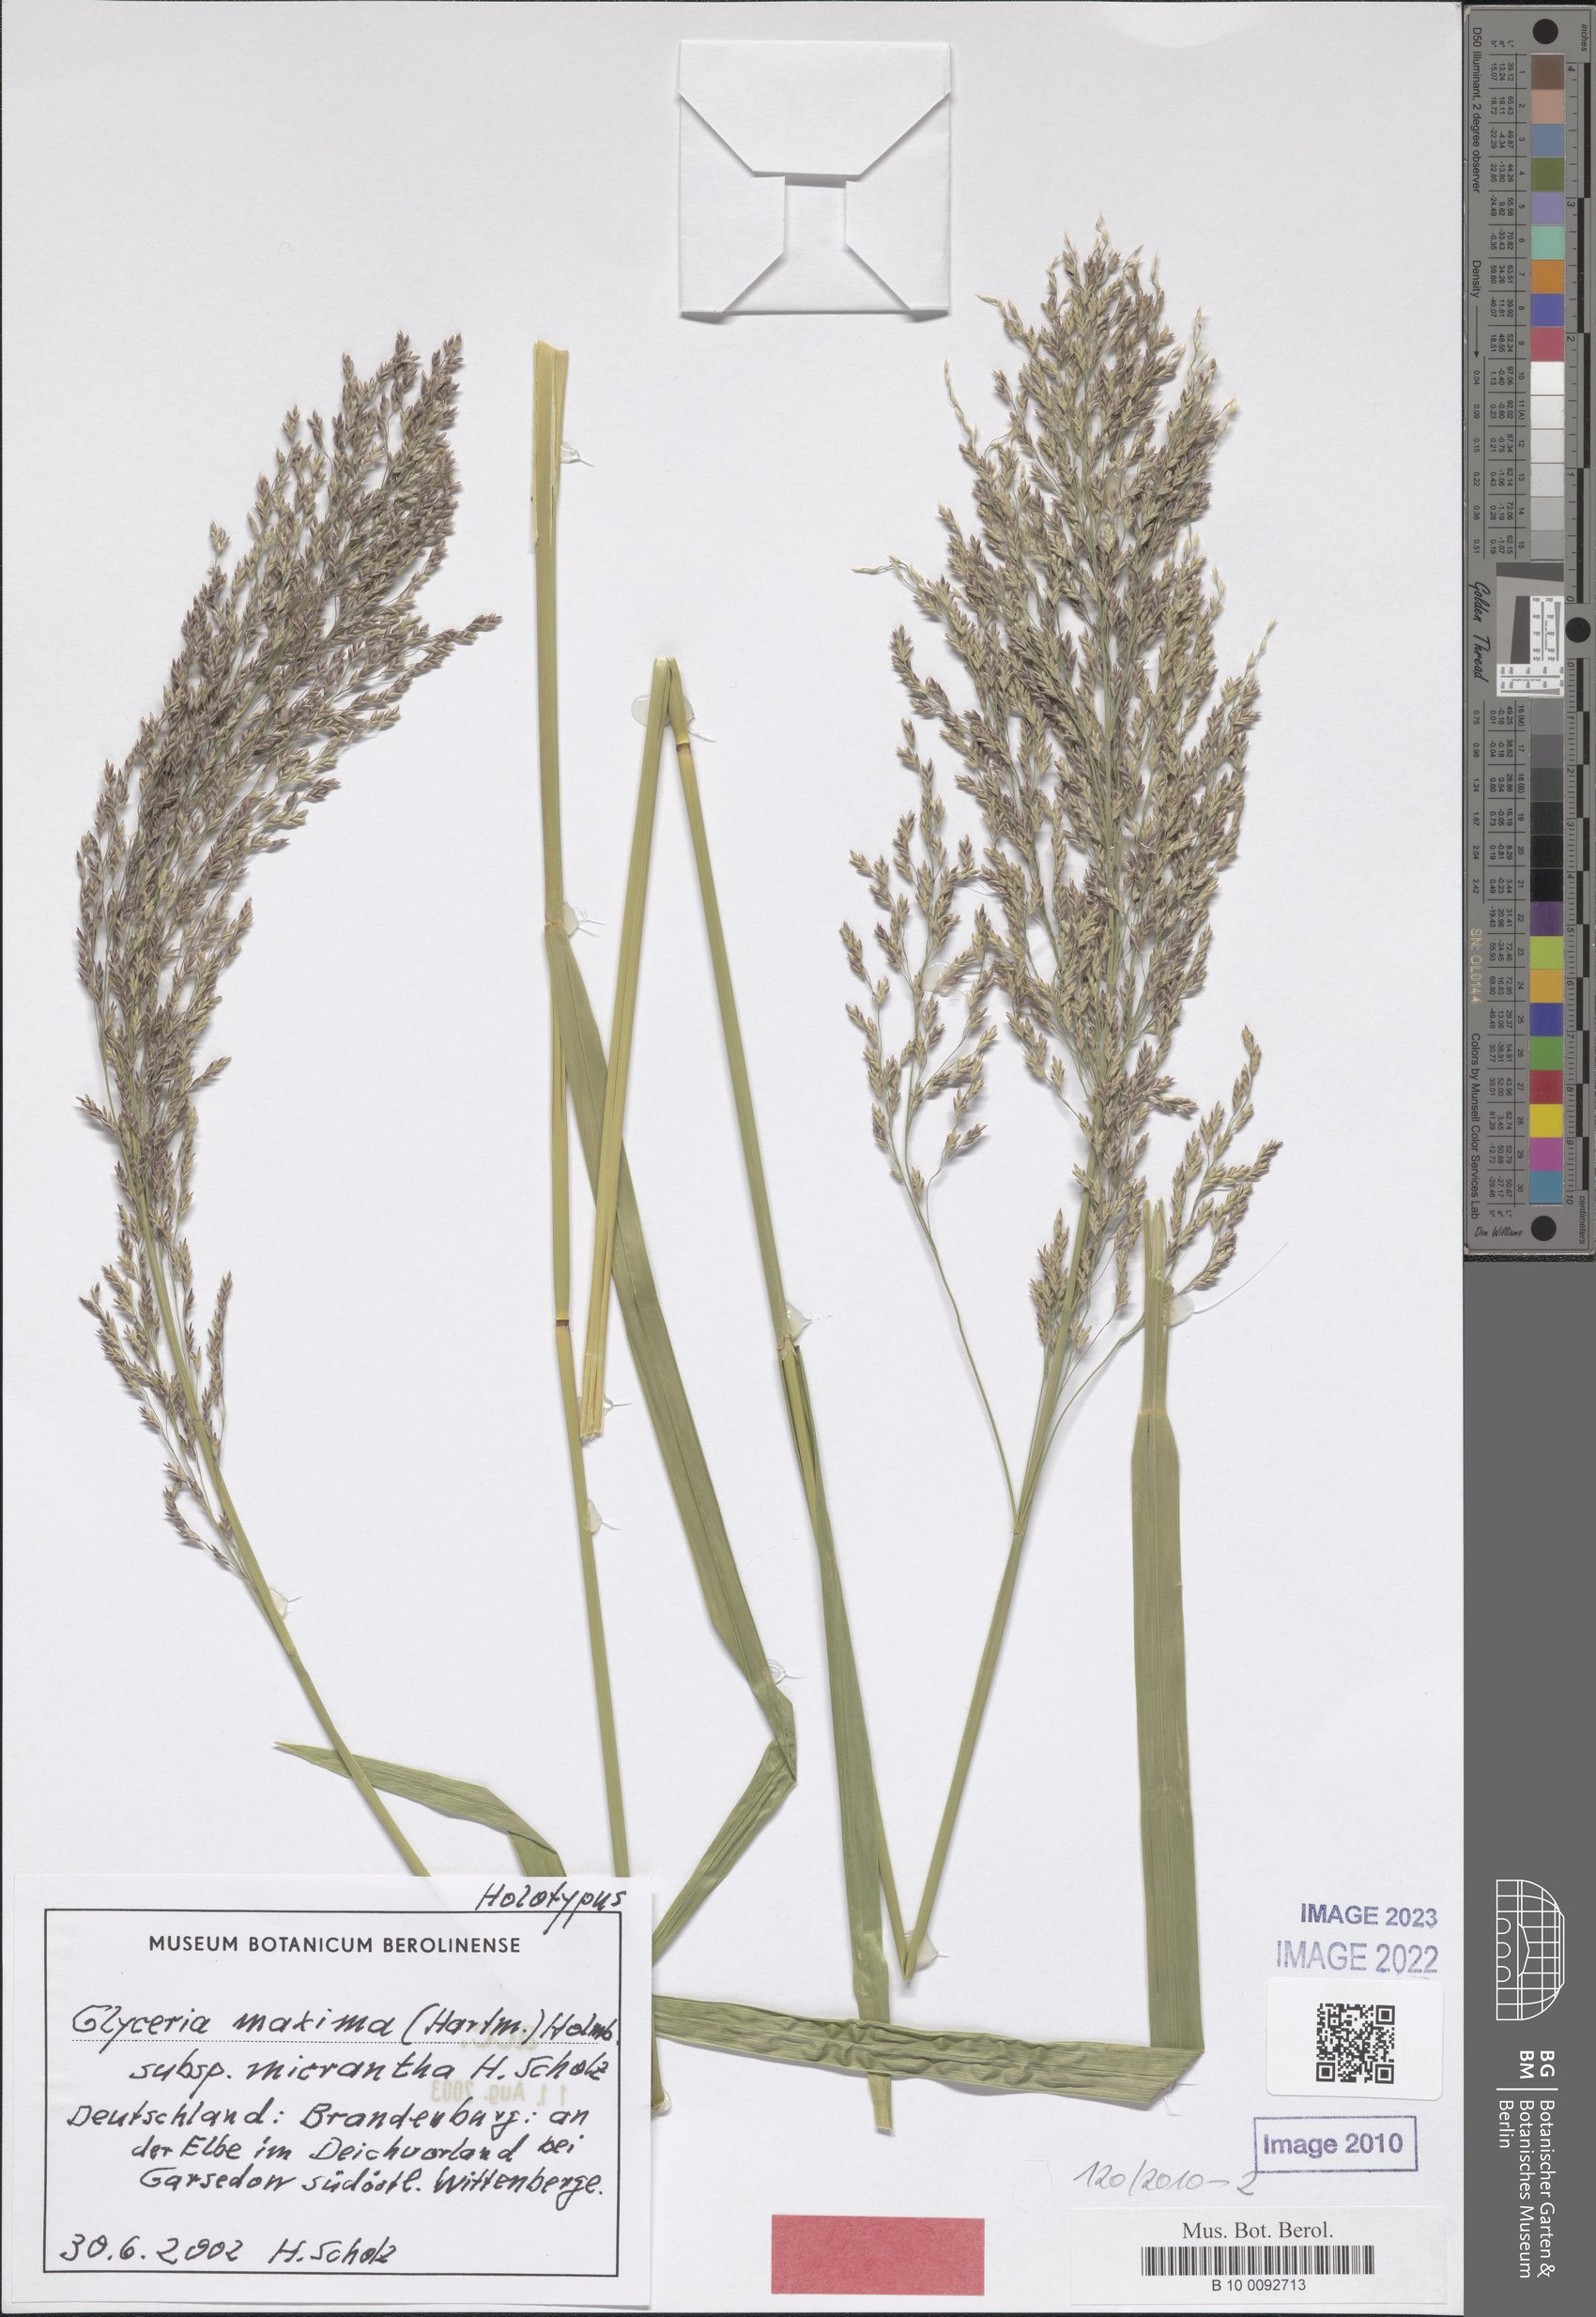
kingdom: Plantae
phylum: Tracheophyta
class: Liliopsida
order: Poales
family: Poaceae
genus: Glyceria
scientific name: Glyceria maxima
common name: Reed mannagrass
